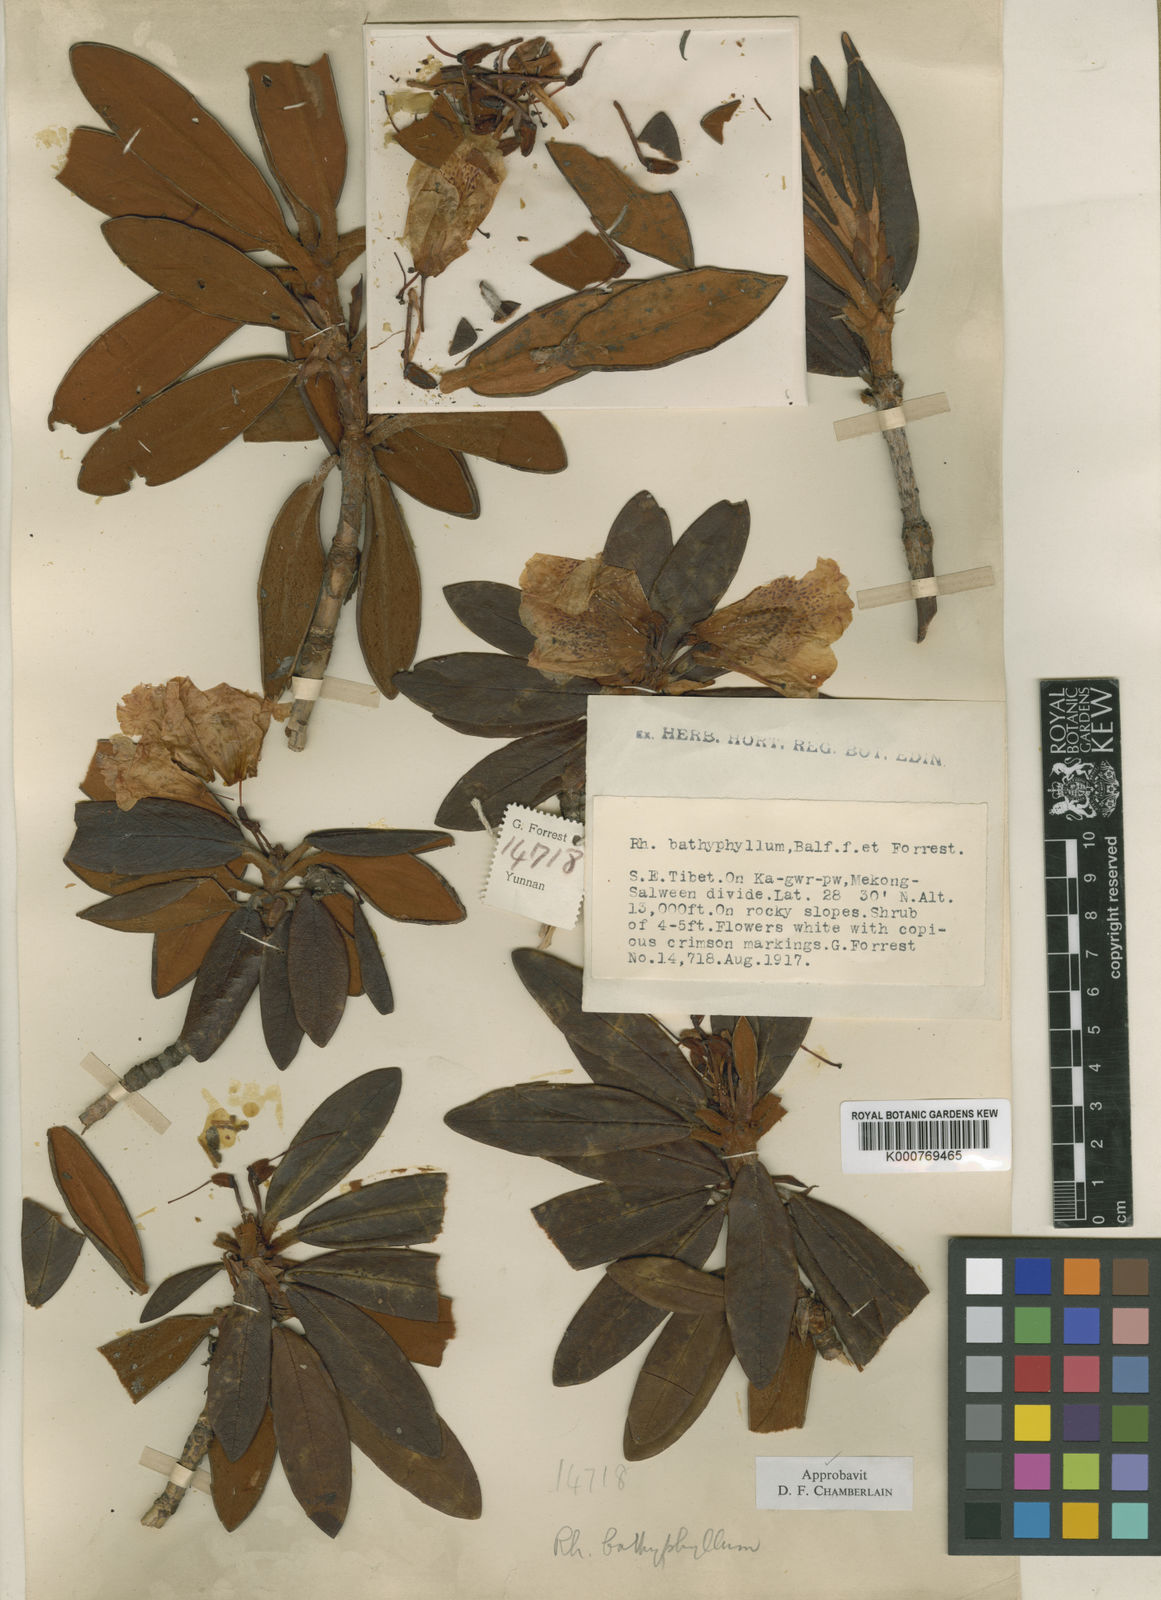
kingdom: Plantae
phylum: Tracheophyta
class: Magnoliopsida
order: Ericales
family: Ericaceae
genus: Rhododendron
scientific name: Rhododendron bathyphyllum
